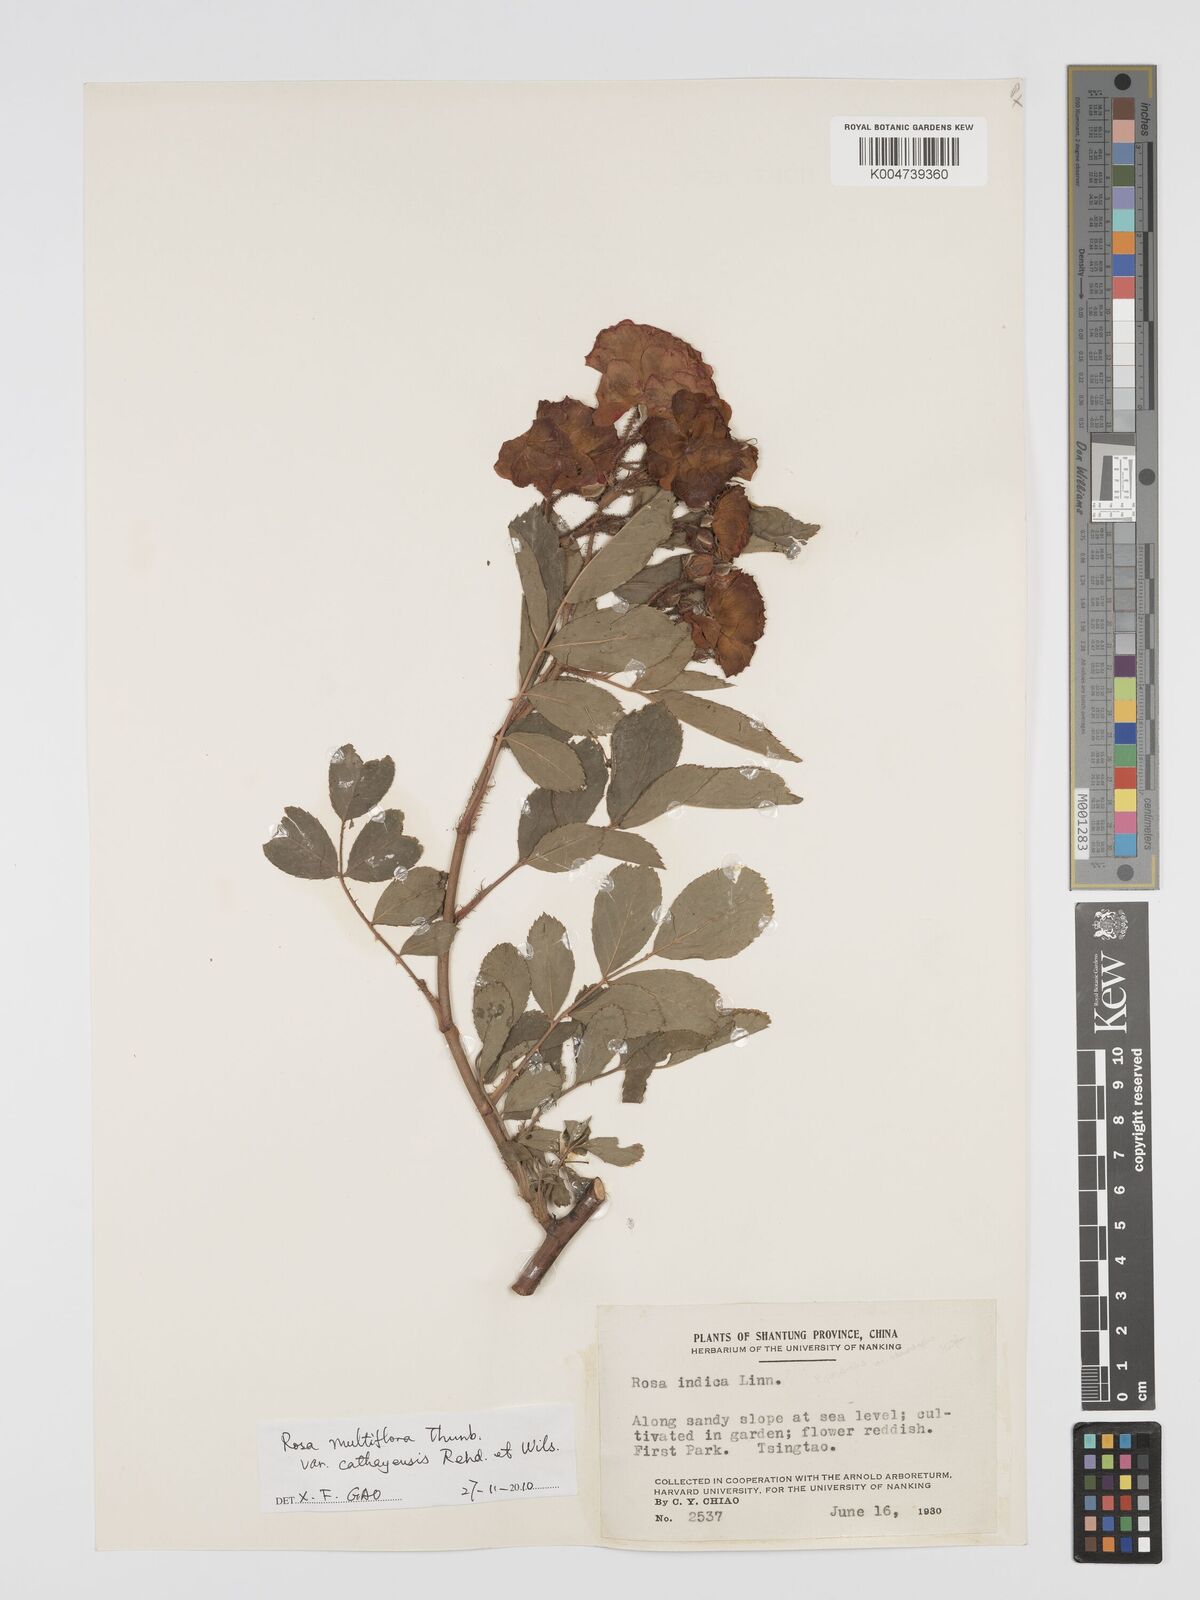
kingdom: Plantae
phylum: Tracheophyta
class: Magnoliopsida
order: Rosales
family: Rosaceae
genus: Rosa
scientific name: Rosa
